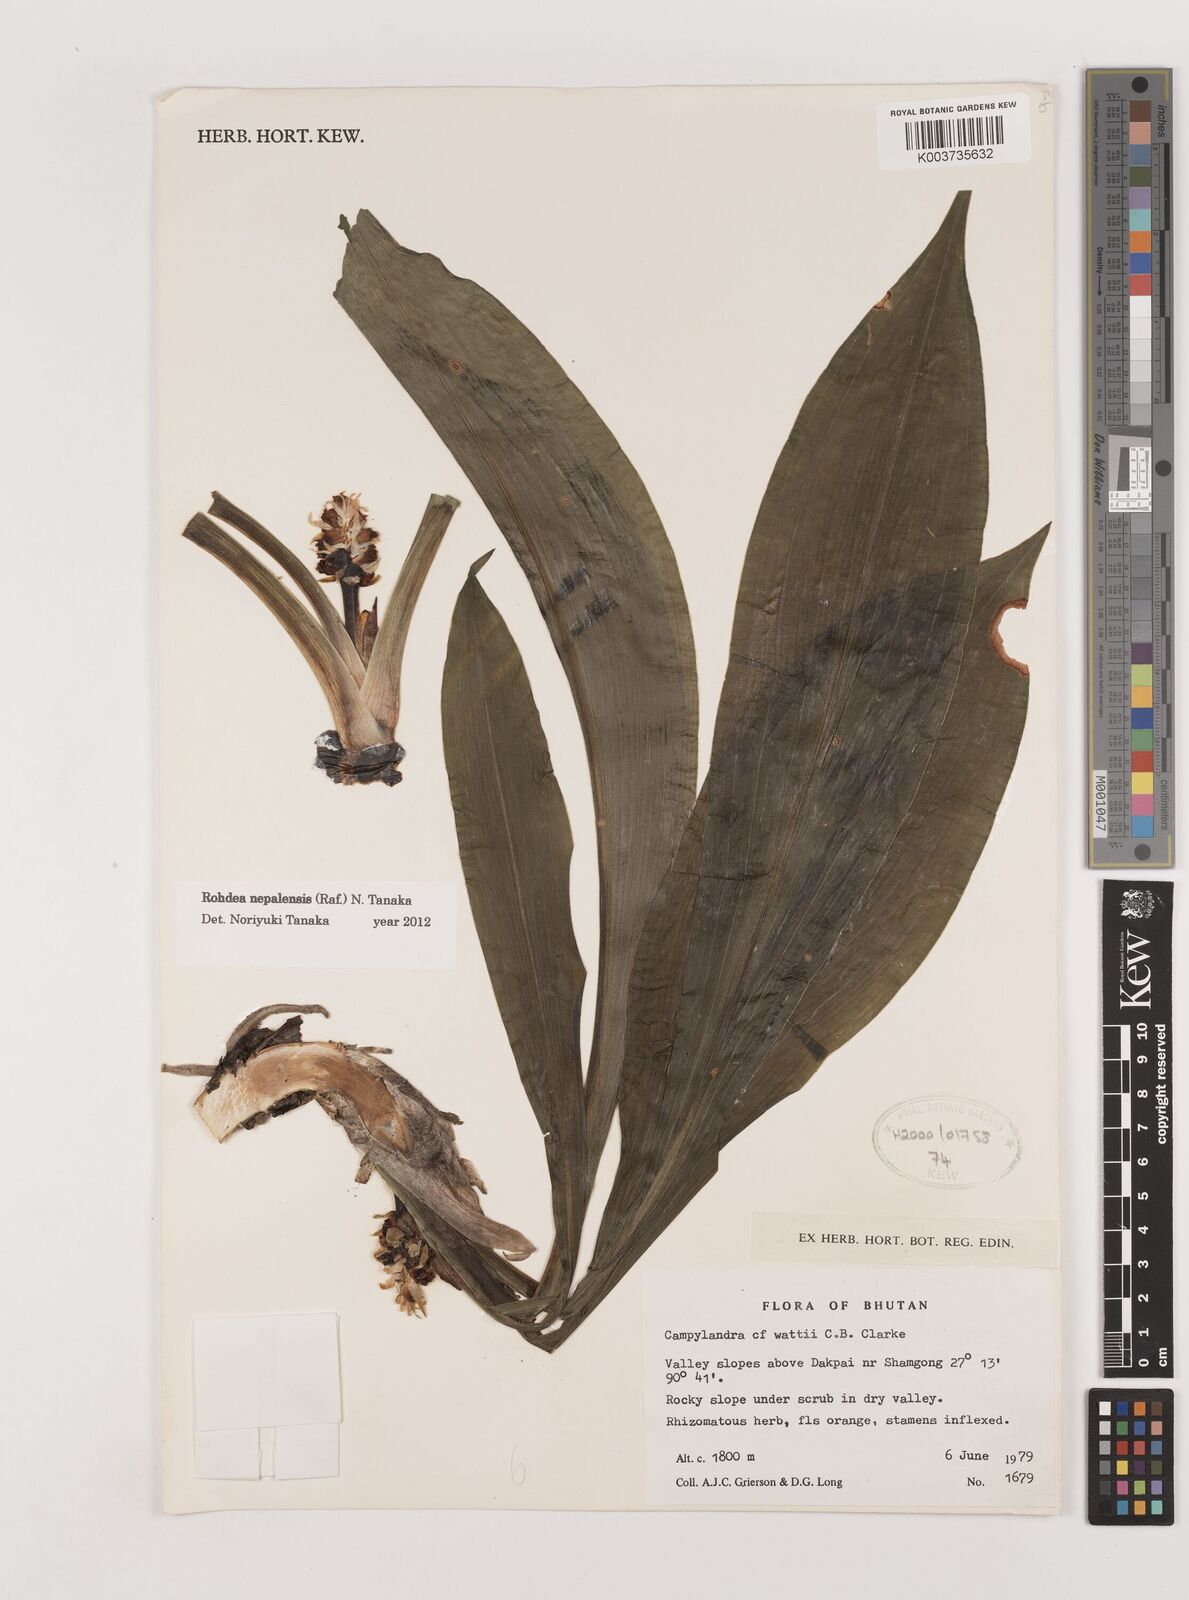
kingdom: Plantae
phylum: Tracheophyta
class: Liliopsida
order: Asparagales
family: Asparagaceae
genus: Rohdea
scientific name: Rohdea nepalensis
